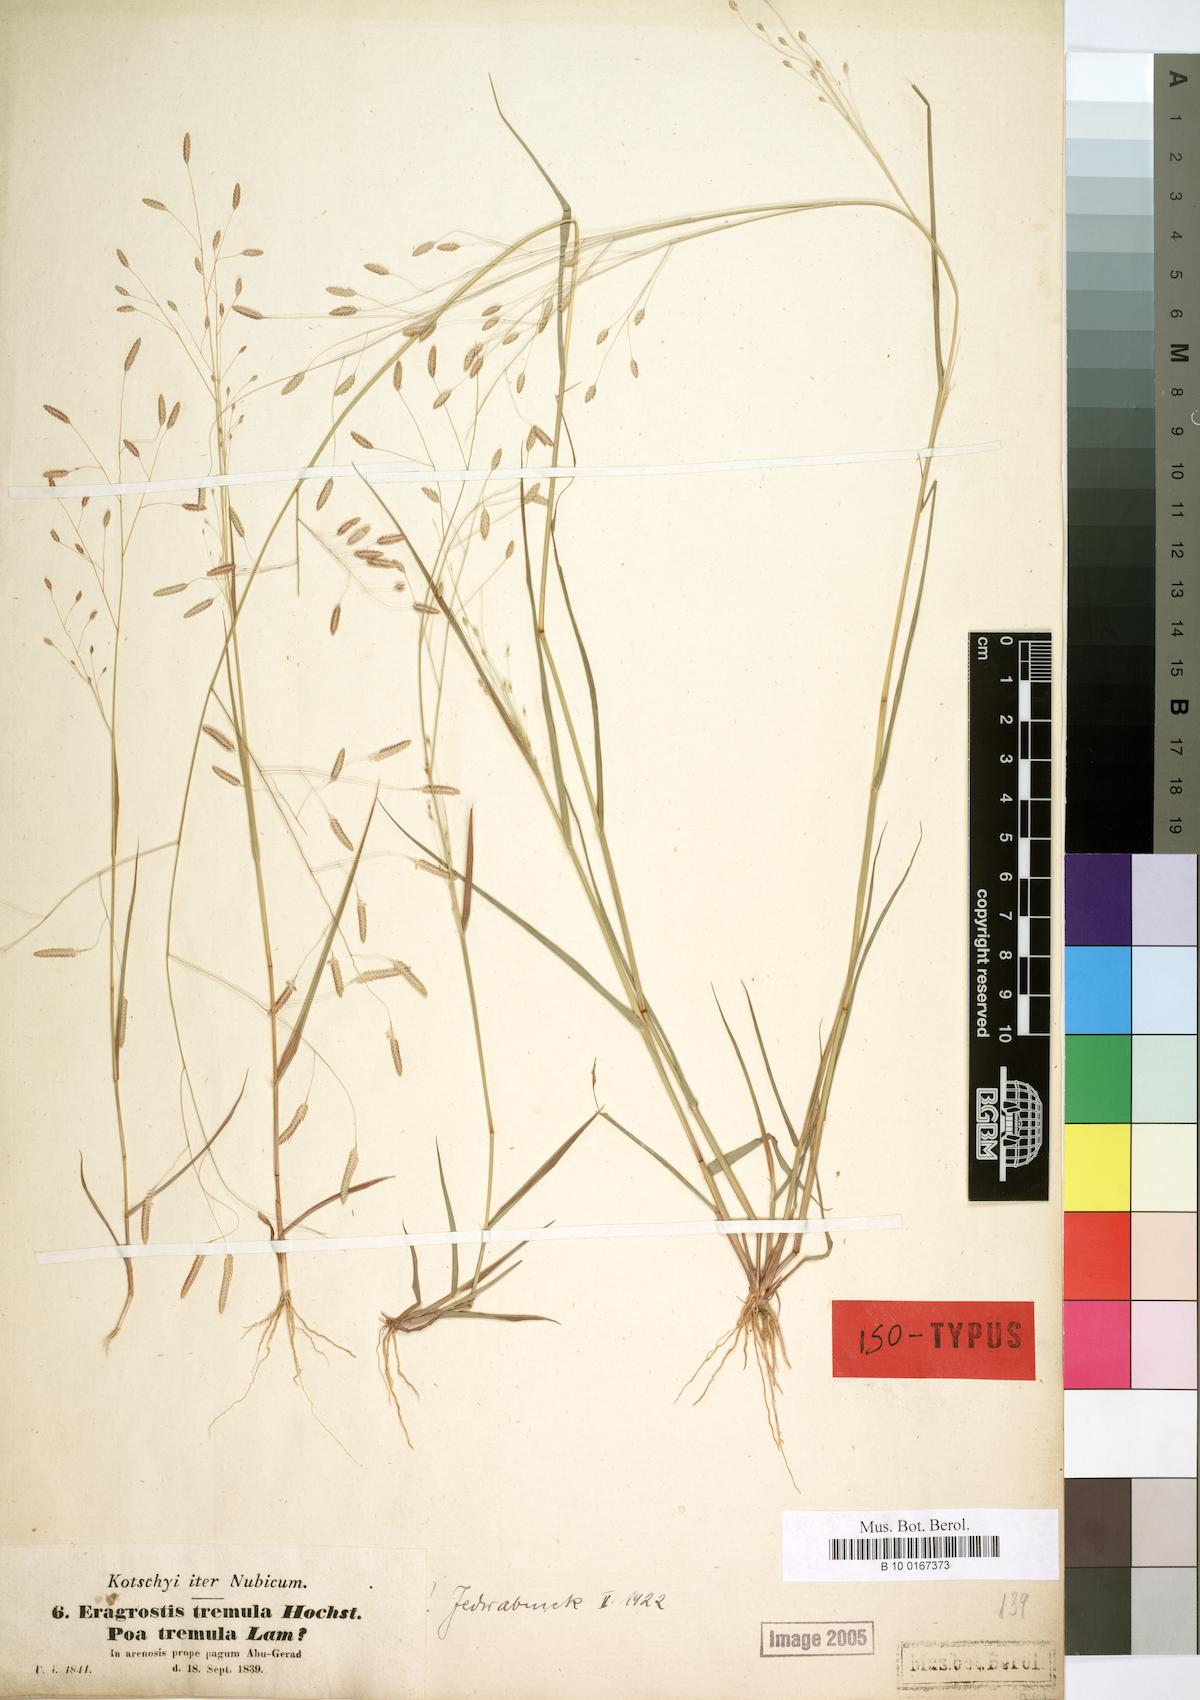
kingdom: Plantae
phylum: Tracheophyta
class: Liliopsida
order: Poales
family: Poaceae
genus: Eragrostis
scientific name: Eragrostis tremula
